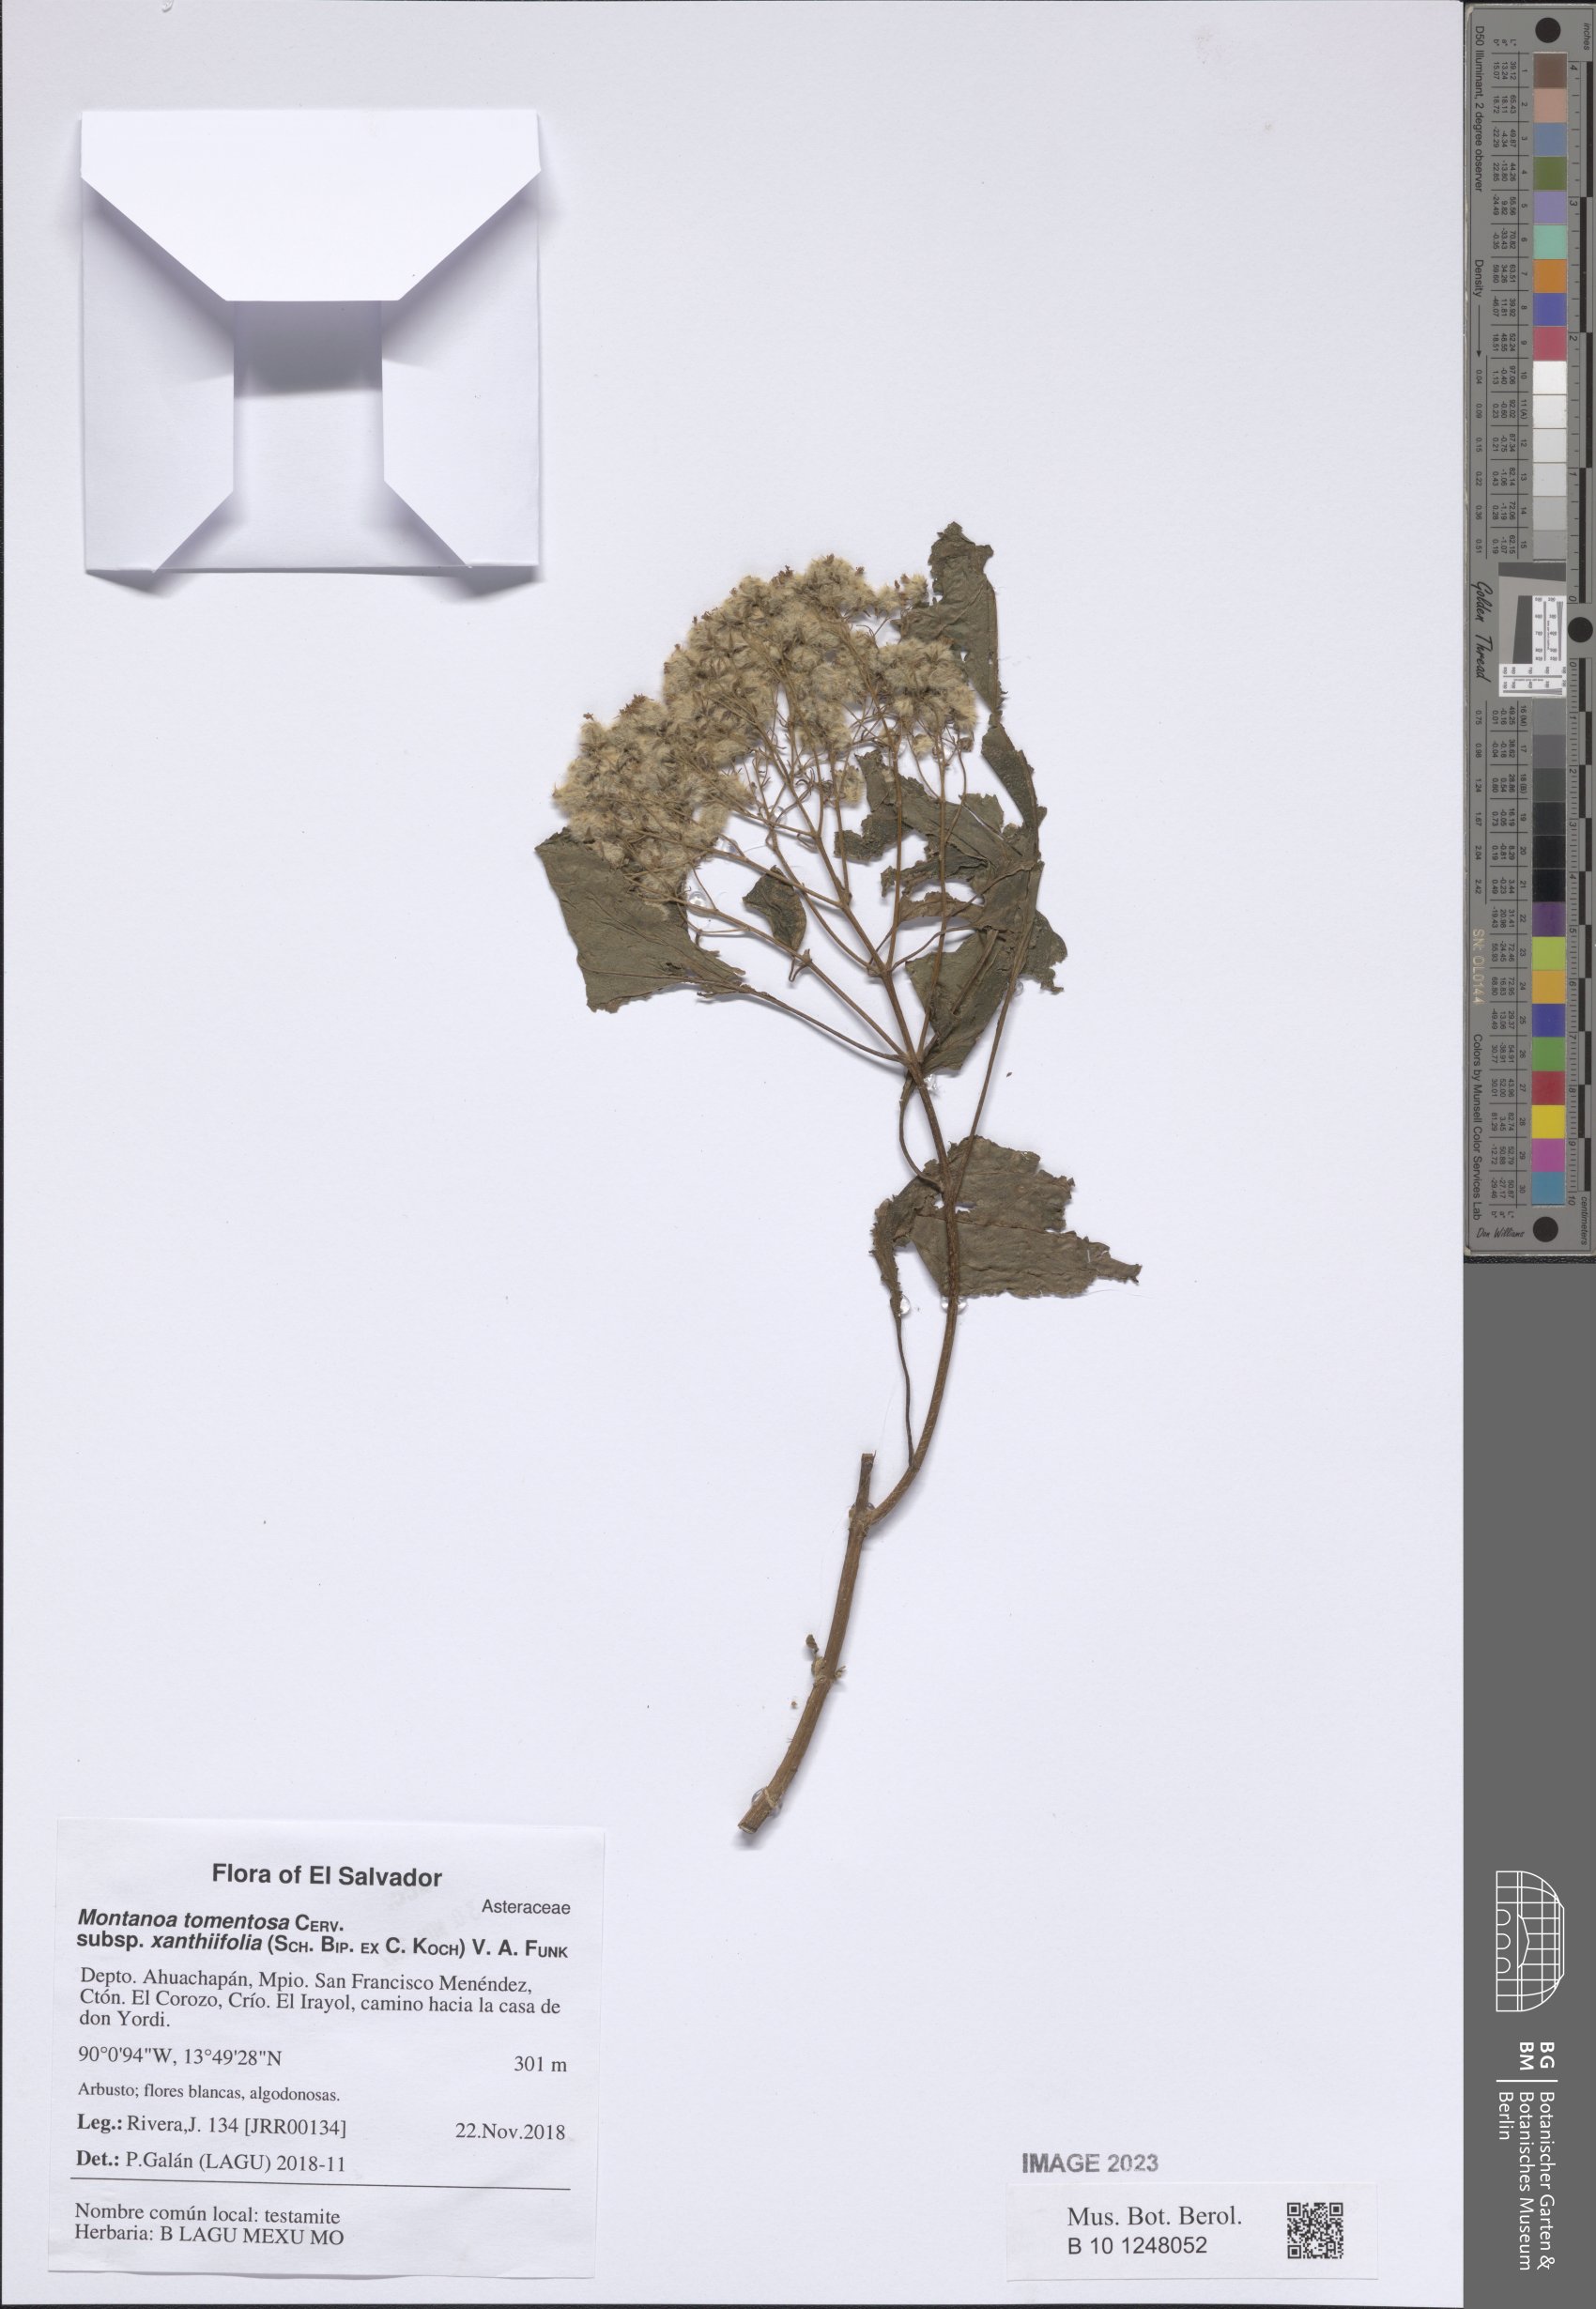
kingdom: Plantae
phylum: Tracheophyta
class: Magnoliopsida
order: Asterales
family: Asteraceae
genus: Montanoa
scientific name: Montanoa tomentosa
